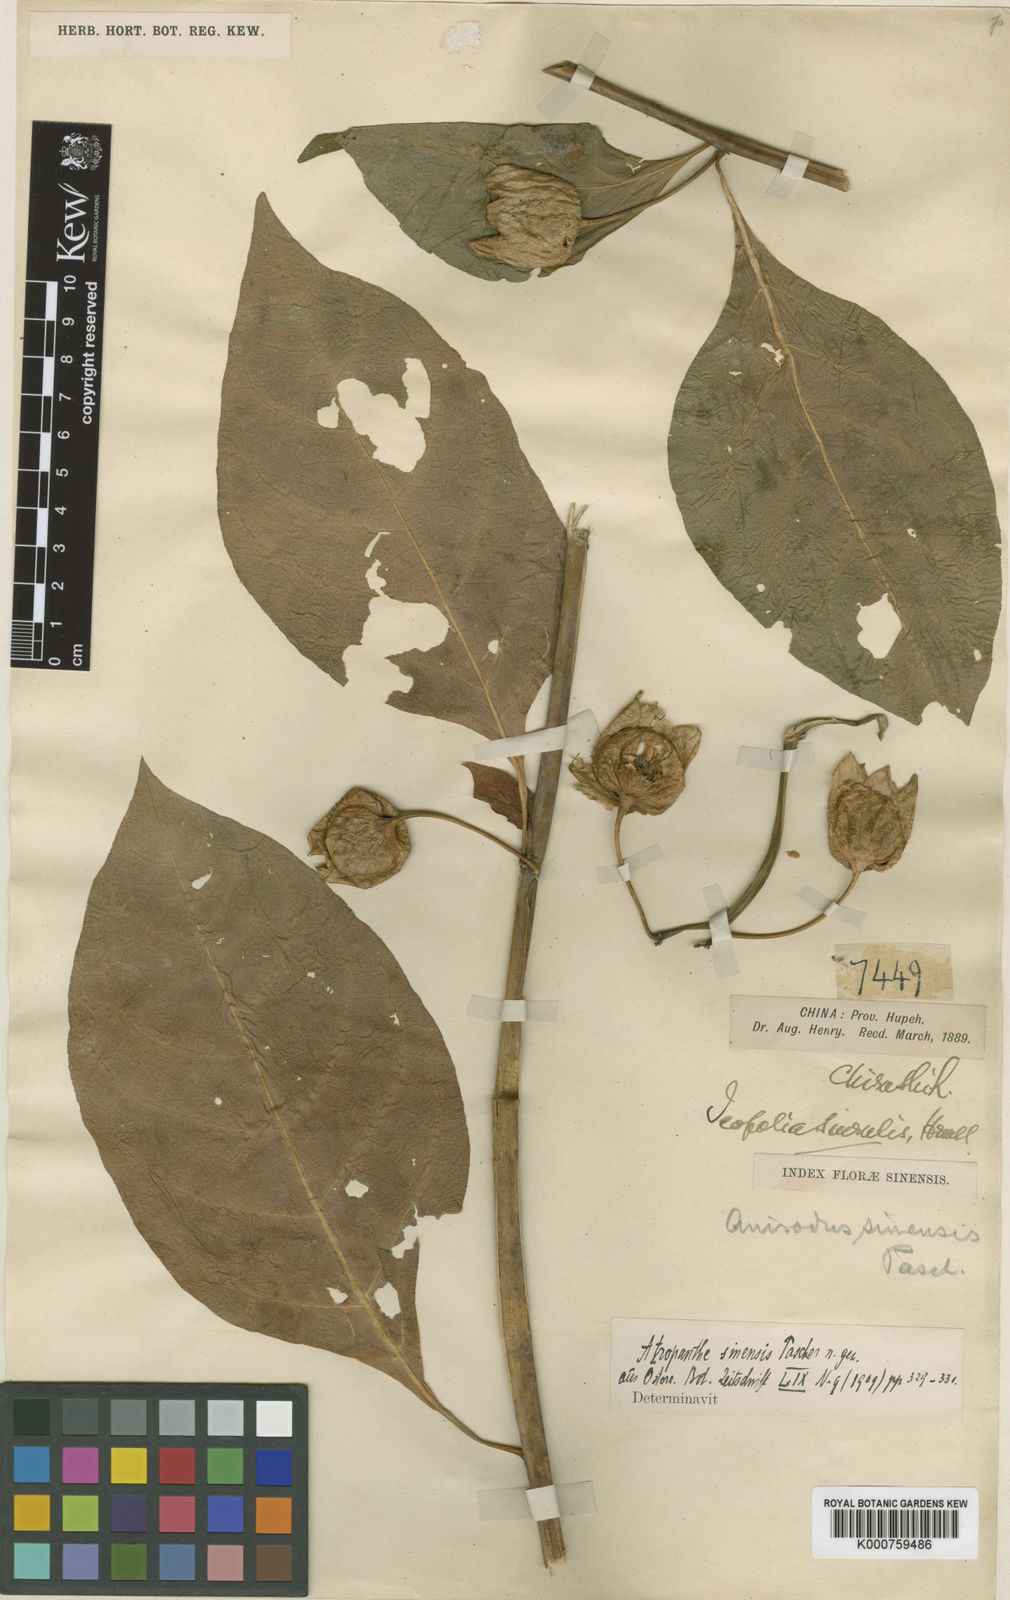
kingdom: Plantae
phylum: Tracheophyta
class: Magnoliopsida
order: Solanales
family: Solanaceae
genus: Atropanthe
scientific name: Atropanthe sinensis
